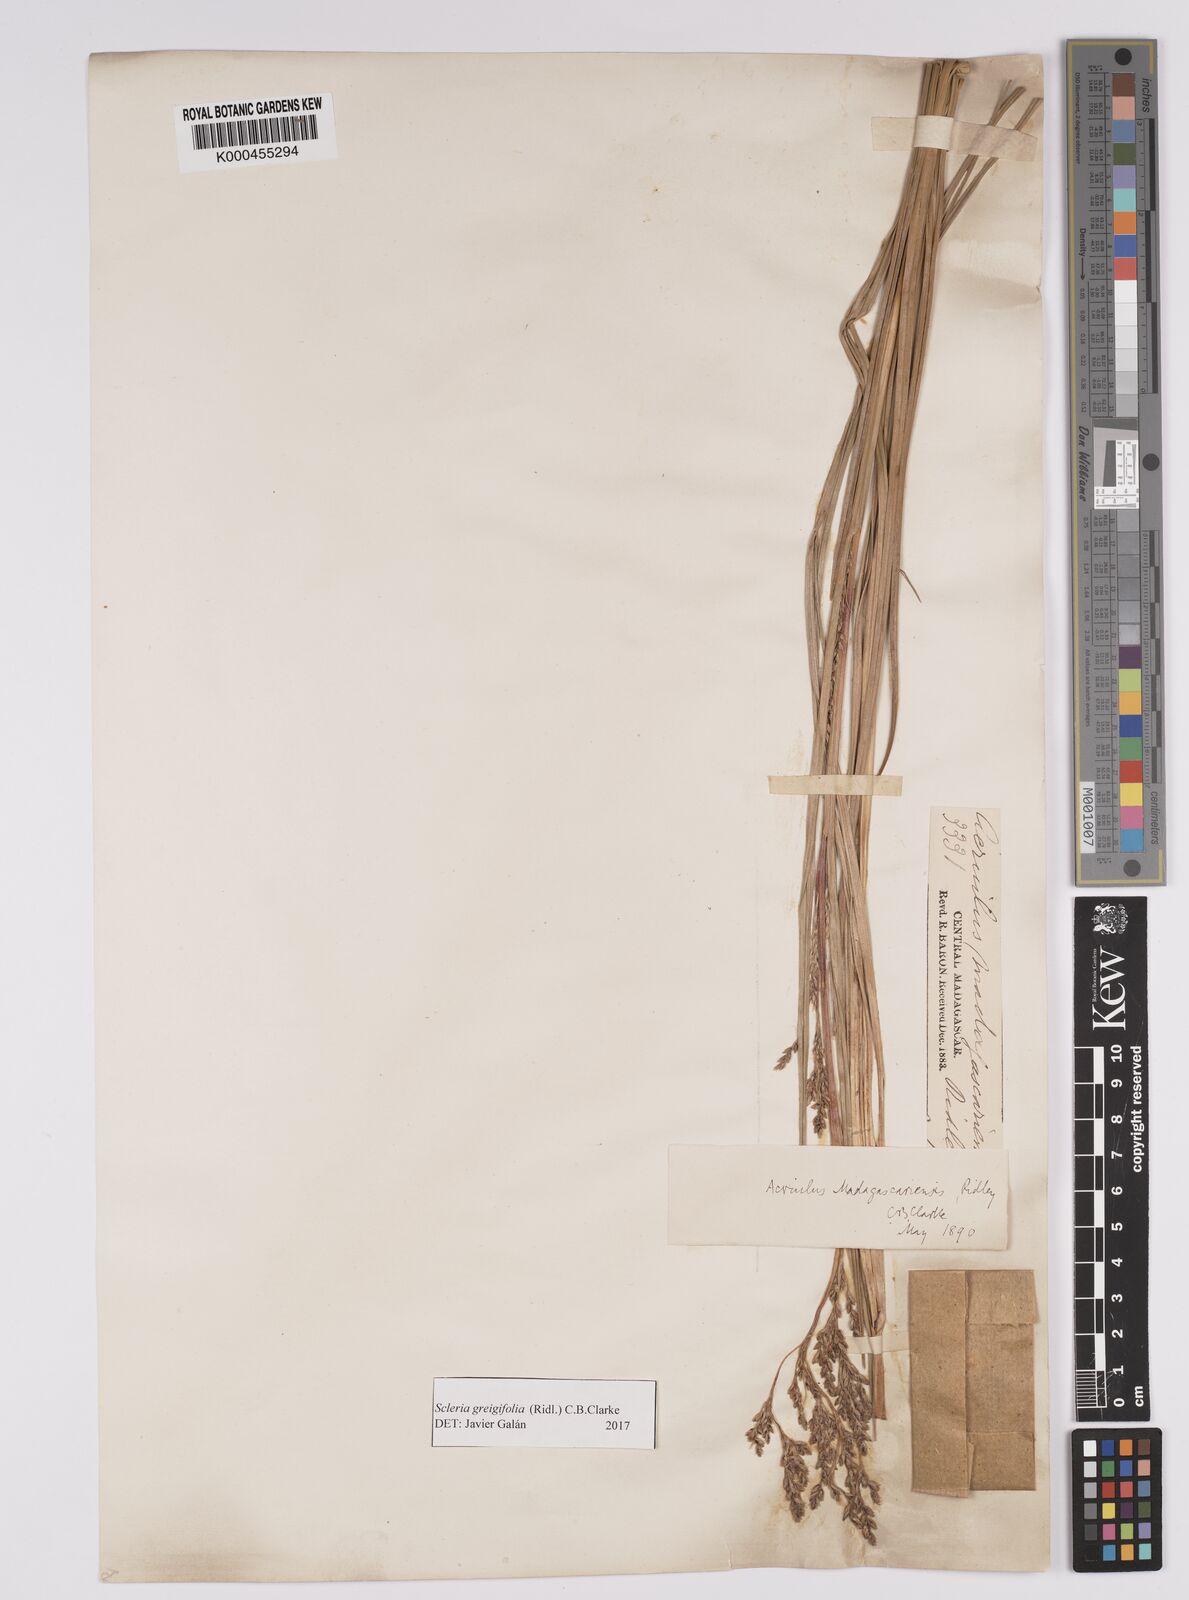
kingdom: Plantae
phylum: Tracheophyta
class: Liliopsida
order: Poales
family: Cyperaceae
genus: Scleria
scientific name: Scleria greigiifolia
